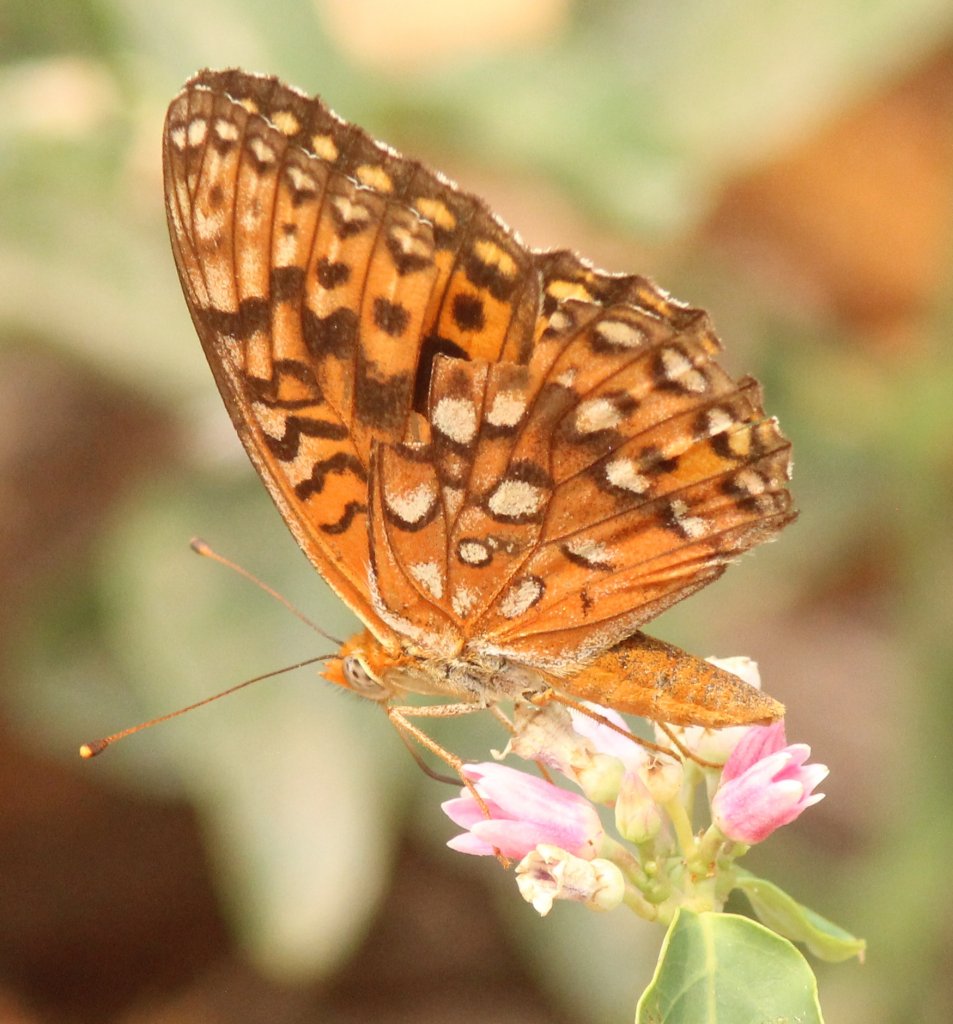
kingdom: Animalia
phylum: Arthropoda
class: Insecta
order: Lepidoptera
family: Nymphalidae
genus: Speyeria
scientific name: Speyeria hydaspe
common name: Hydaspe Fritillary
